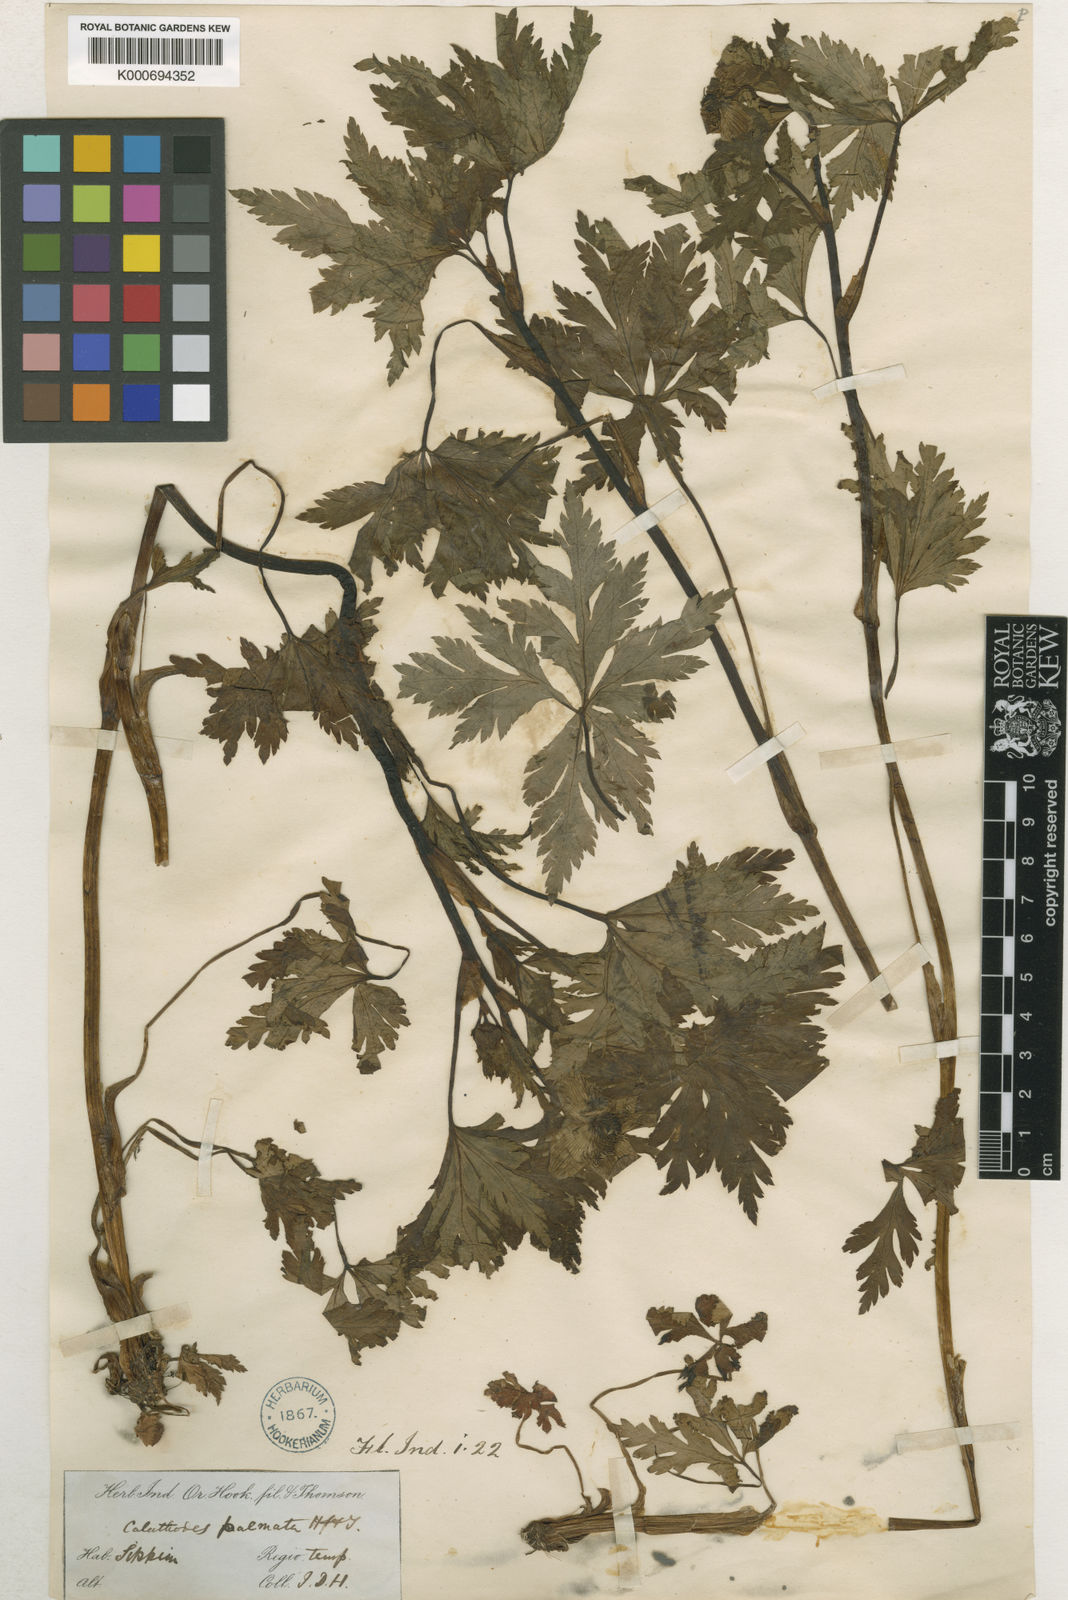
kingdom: Plantae
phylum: Tracheophyta
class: Magnoliopsida
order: Ranunculales
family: Ranunculaceae
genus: Calathodes
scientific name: Calathodes palmata
